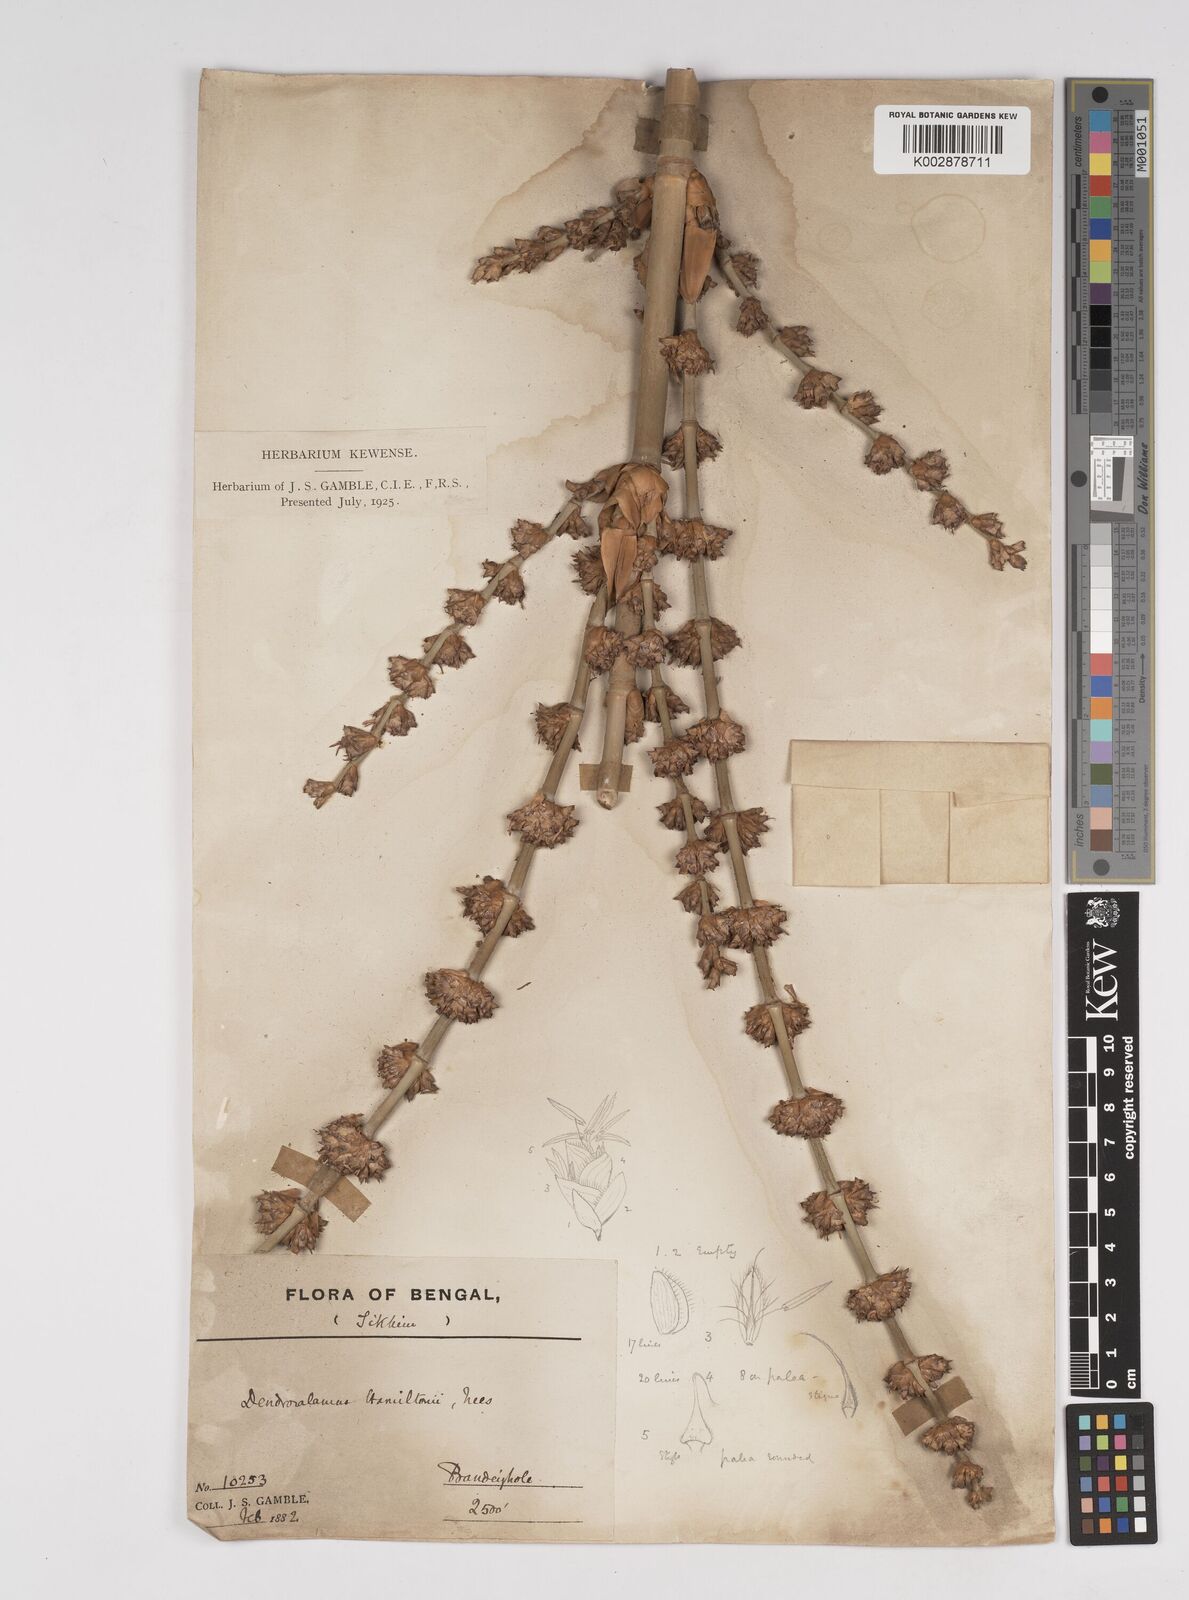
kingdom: Plantae
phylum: Tracheophyta
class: Liliopsida
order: Poales
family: Poaceae
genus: Dendrocalamus
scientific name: Dendrocalamus hamiltonii
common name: Tama bamboo
